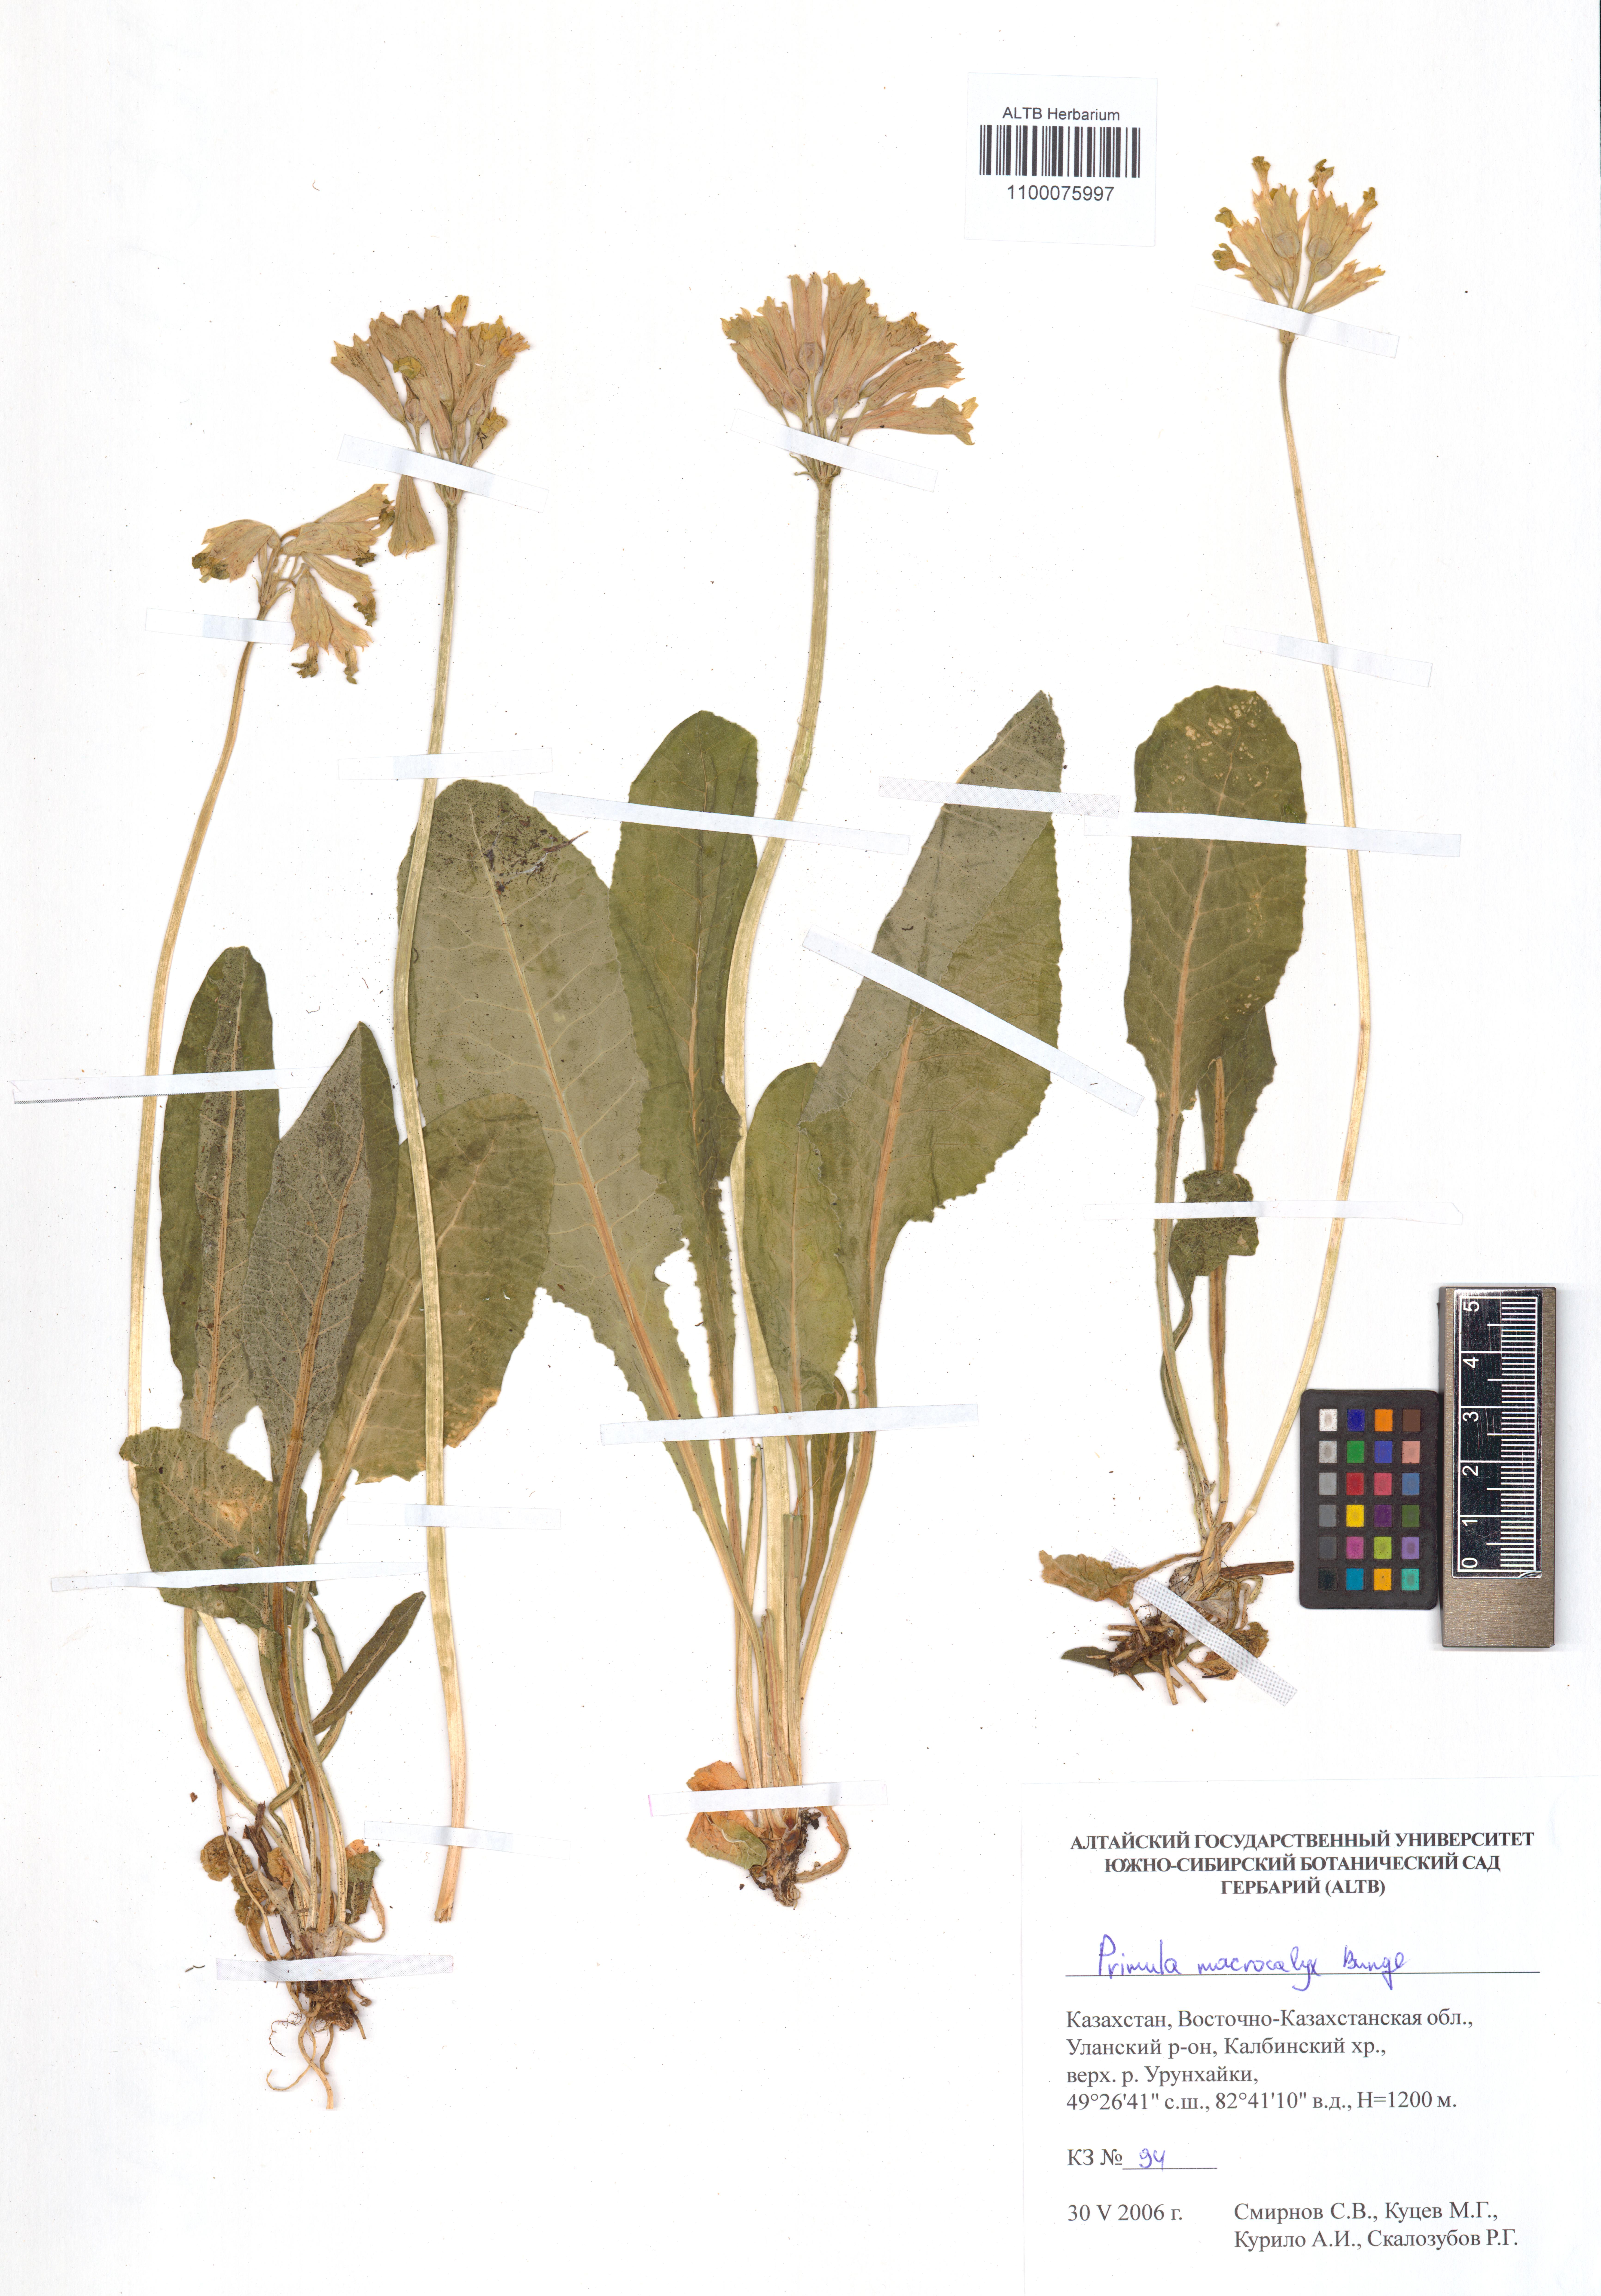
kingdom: Plantae
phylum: Tracheophyta
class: Magnoliopsida
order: Ericales
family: Primulaceae
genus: Primula
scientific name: Primula veris
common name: Cowslip
